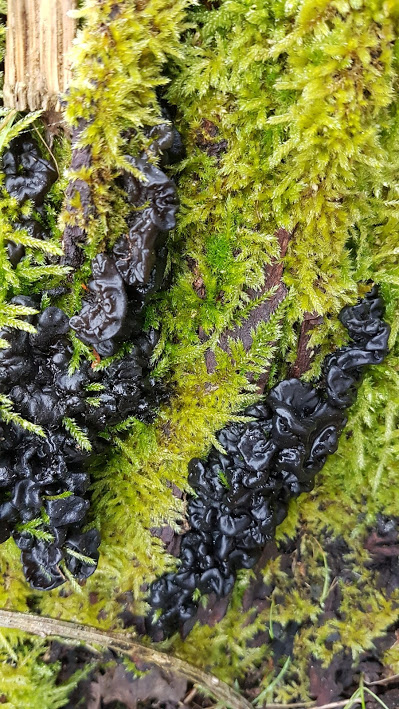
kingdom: Fungi
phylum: Basidiomycota
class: Agaricomycetes
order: Auriculariales
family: Auriculariaceae
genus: Exidia
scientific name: Exidia nigricans
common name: almindelig bævretop
